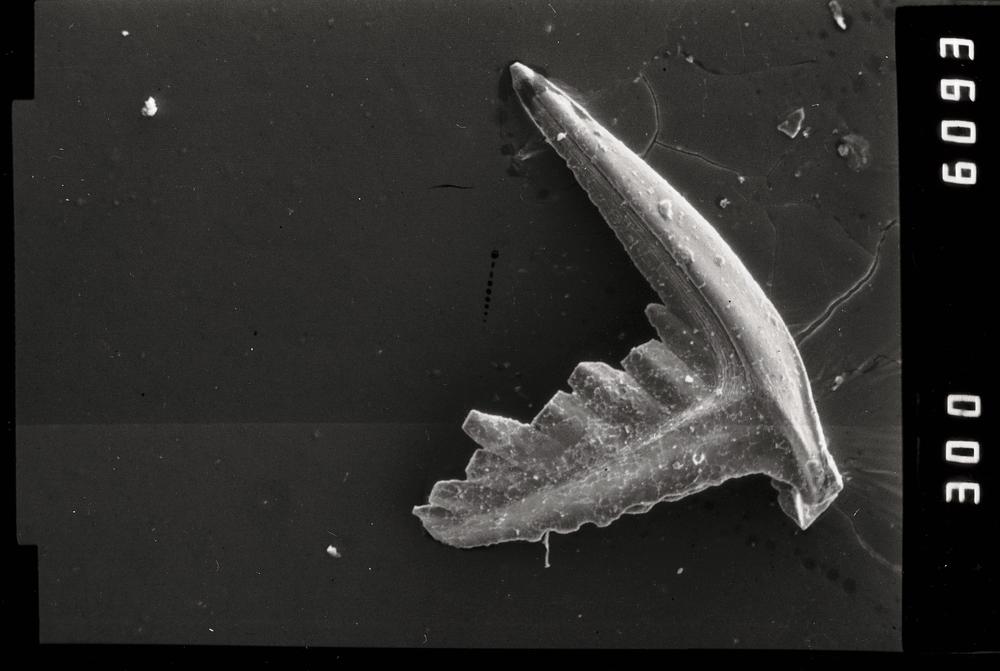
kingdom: Animalia
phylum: Chordata
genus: Oepikodus
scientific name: Oepikodus
